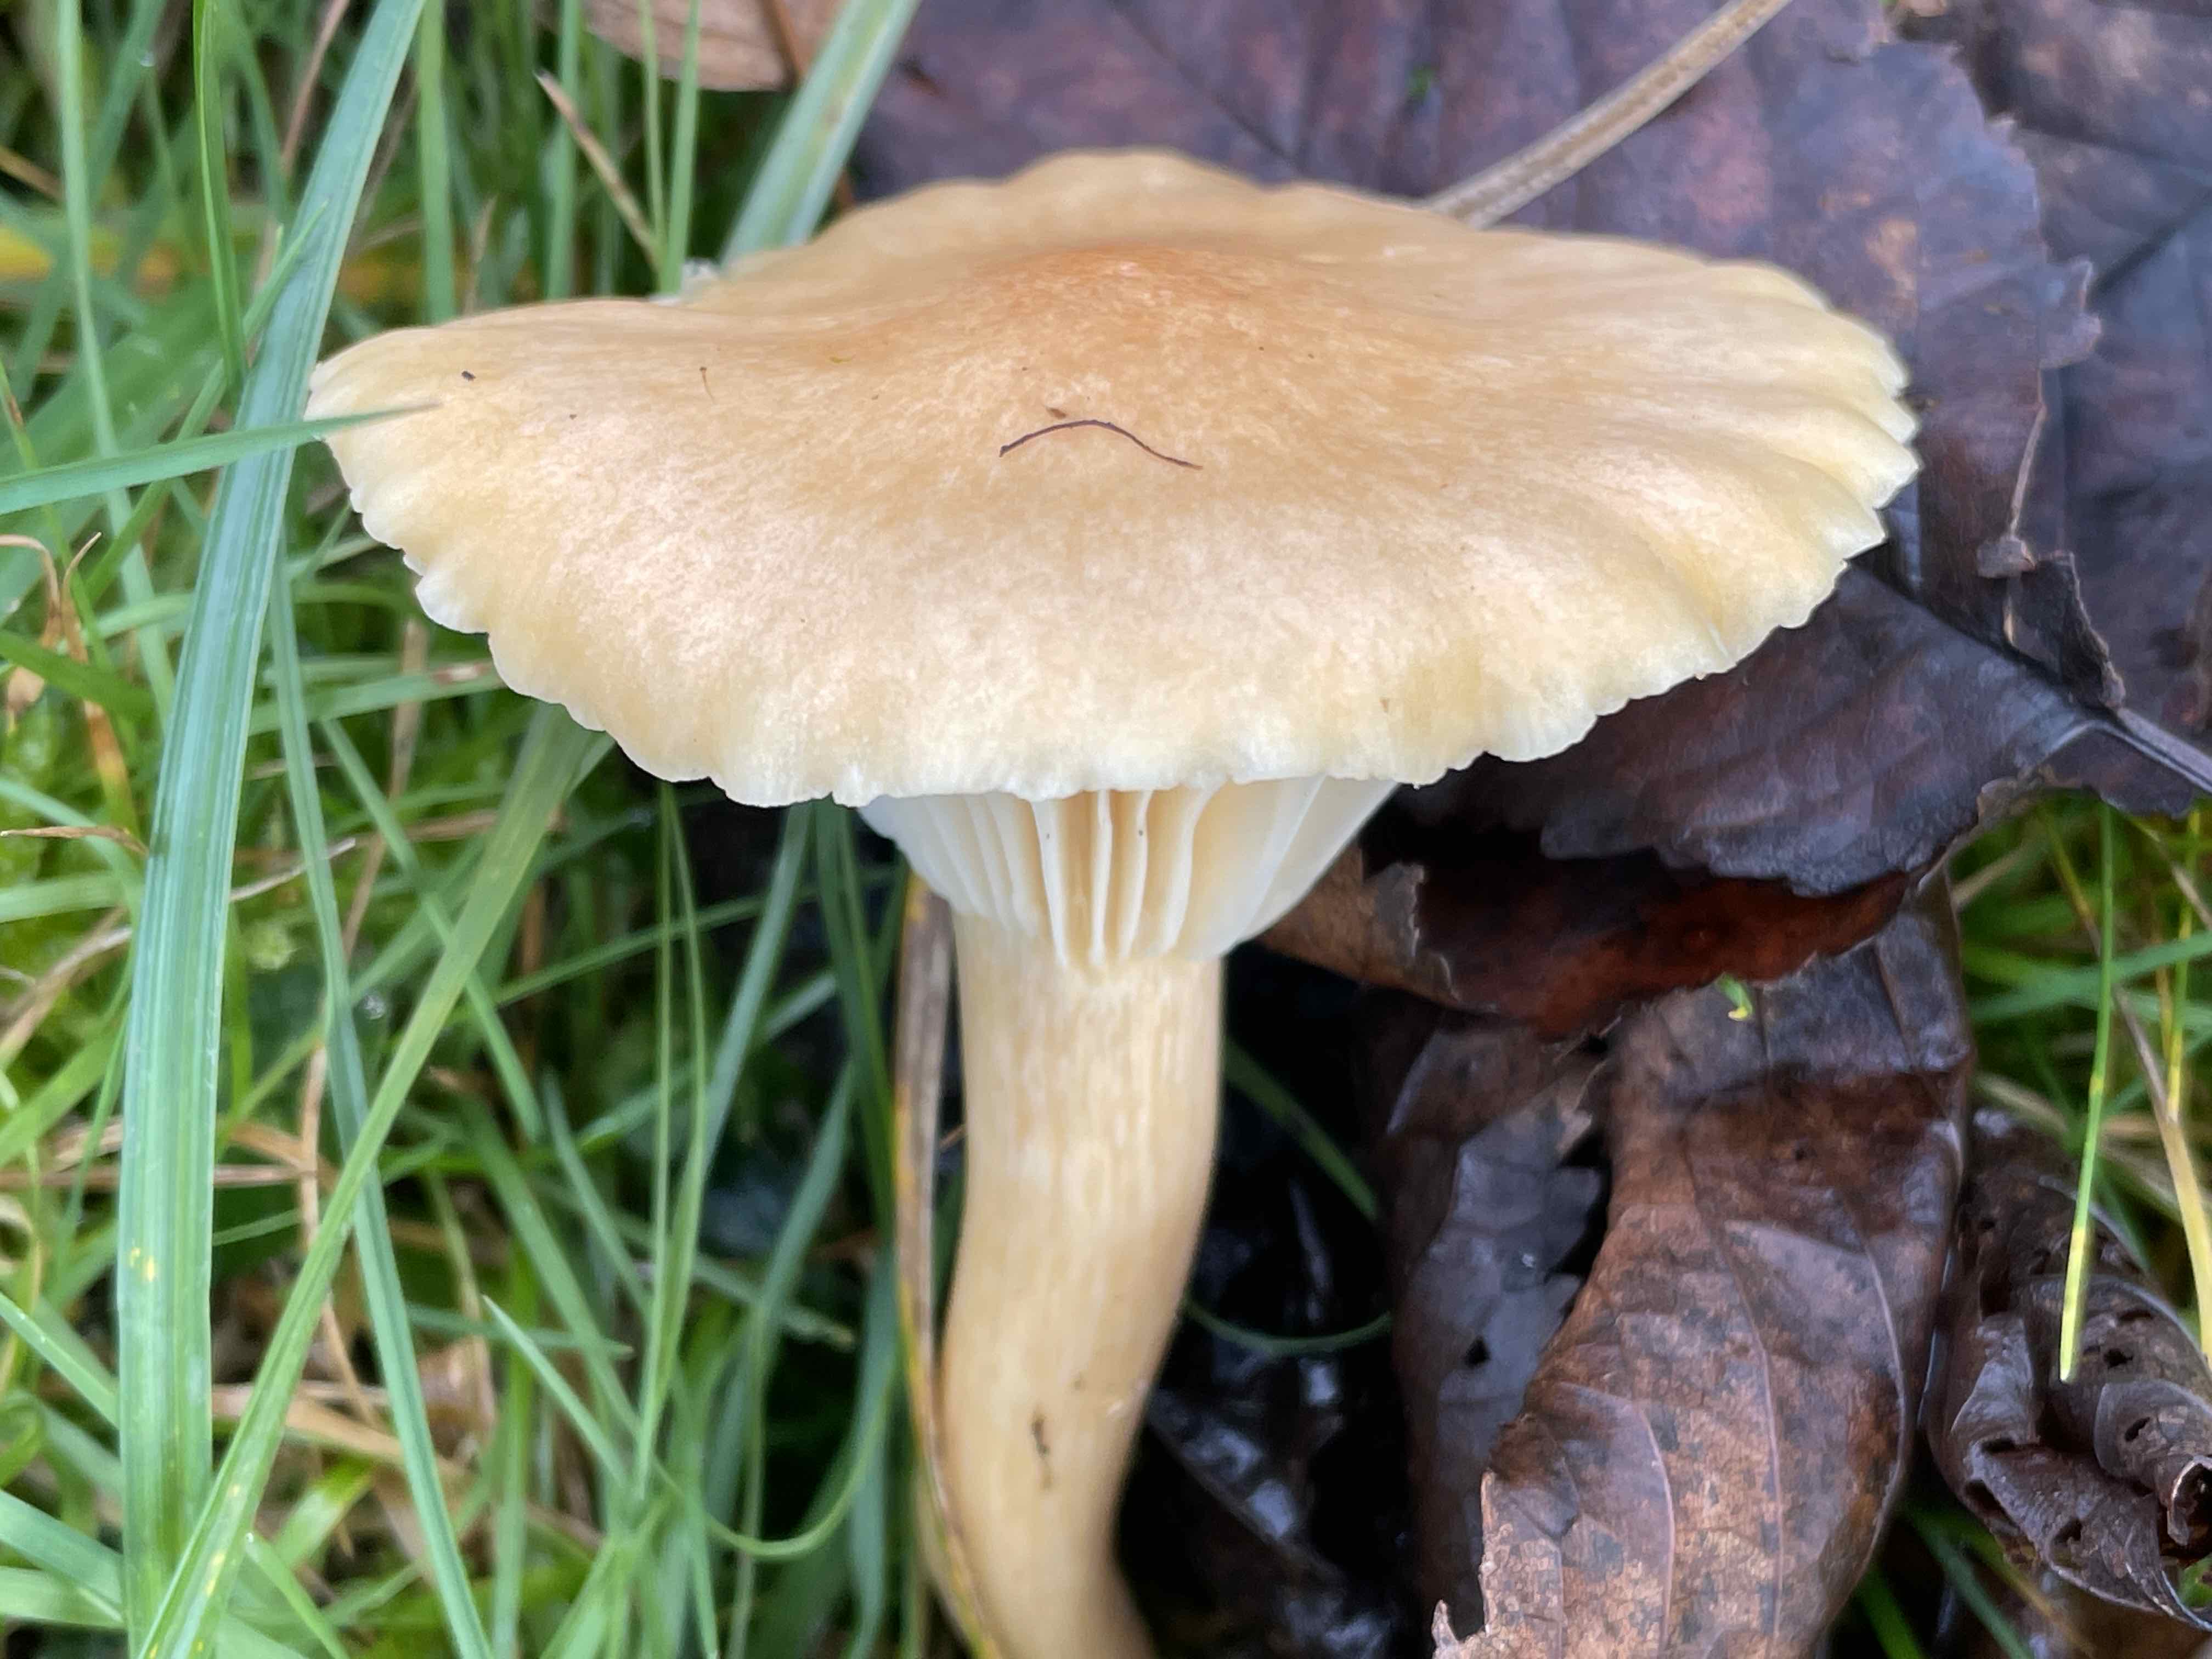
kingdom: Fungi
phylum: Basidiomycota
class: Agaricomycetes
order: Agaricales
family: Hygrophoraceae
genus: Cuphophyllus
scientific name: Cuphophyllus pratensis
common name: eng-vokshat
